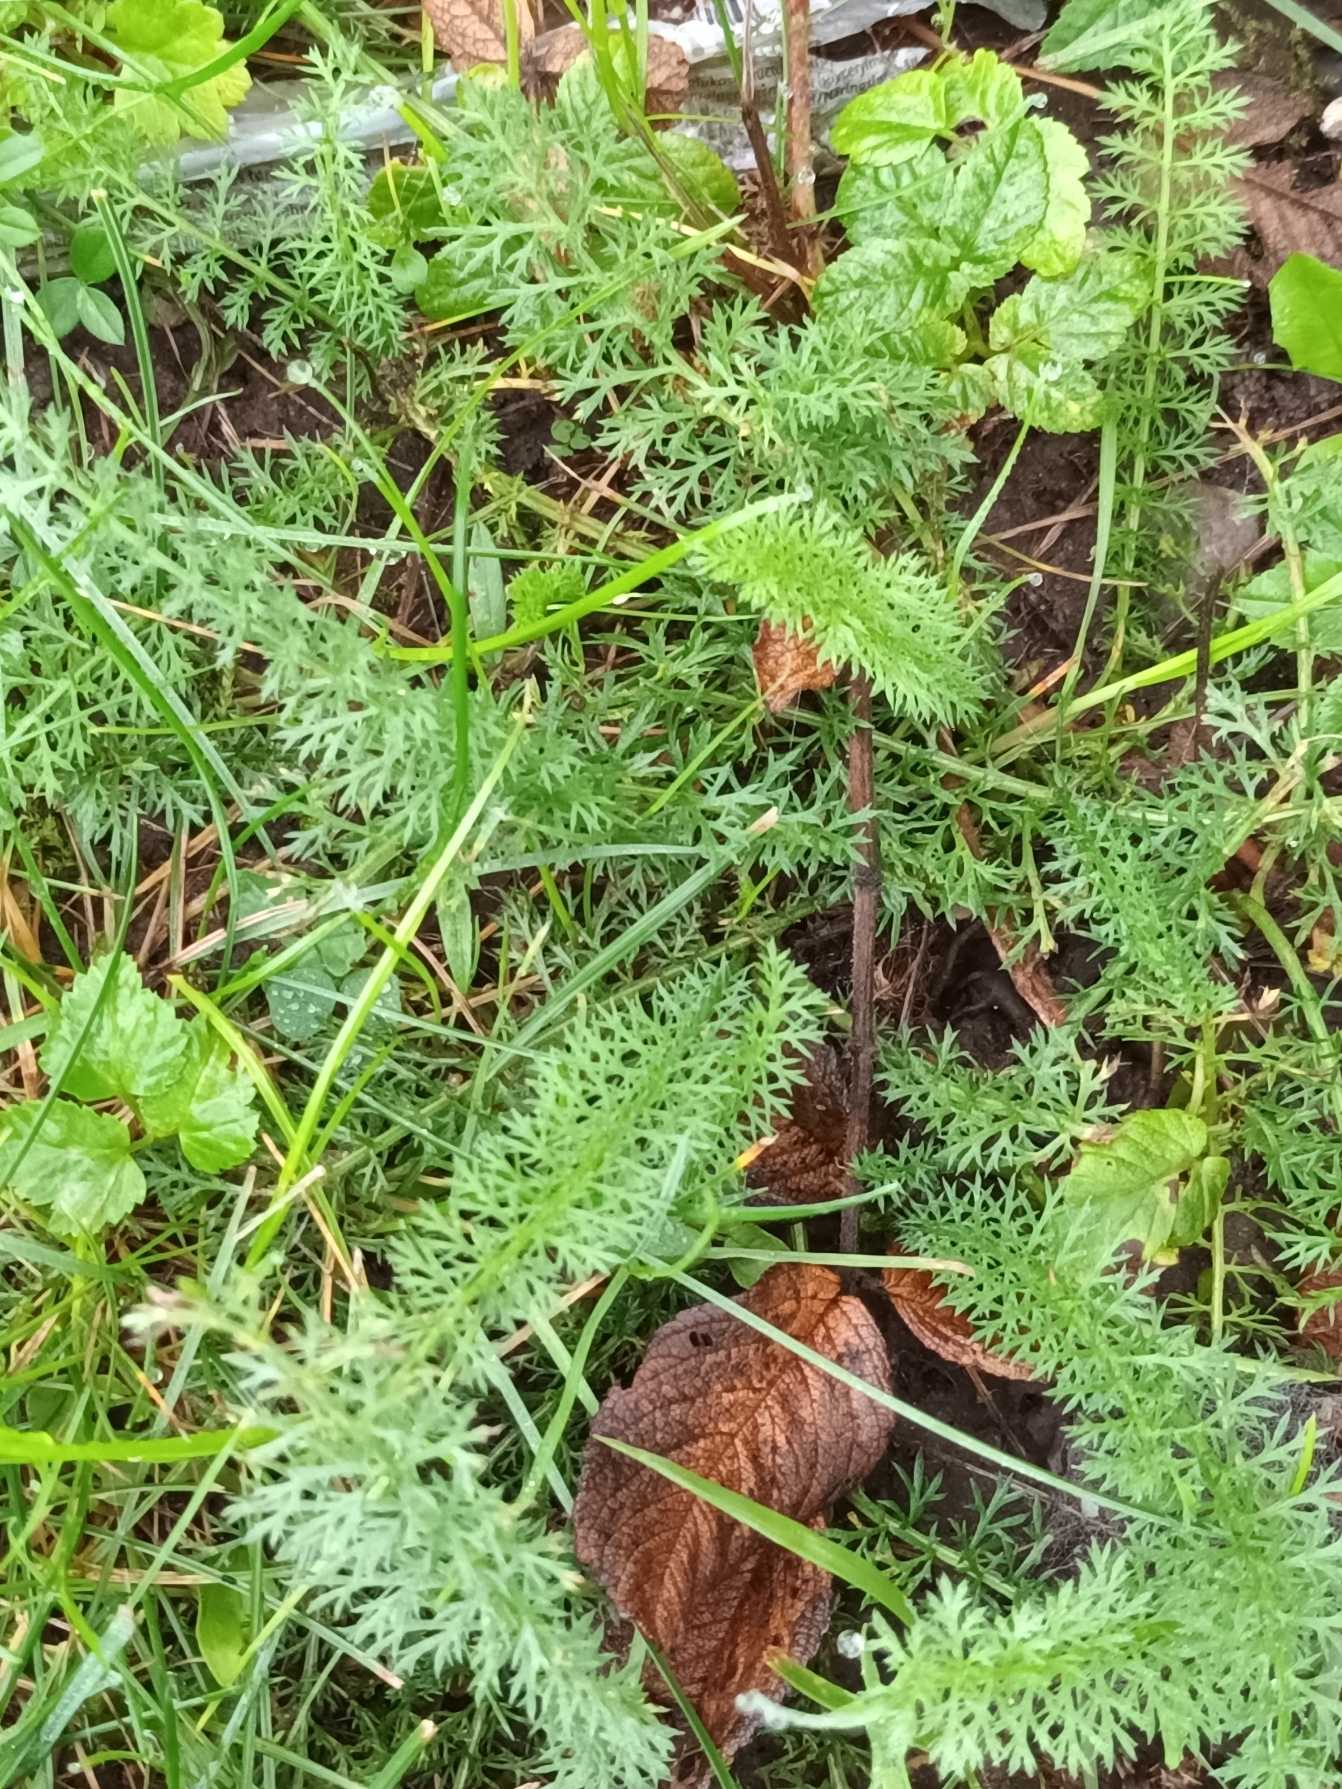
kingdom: Plantae
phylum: Tracheophyta
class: Magnoliopsida
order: Asterales
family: Asteraceae
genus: Achillea
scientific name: Achillea millefolium
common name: Almindelig røllike
